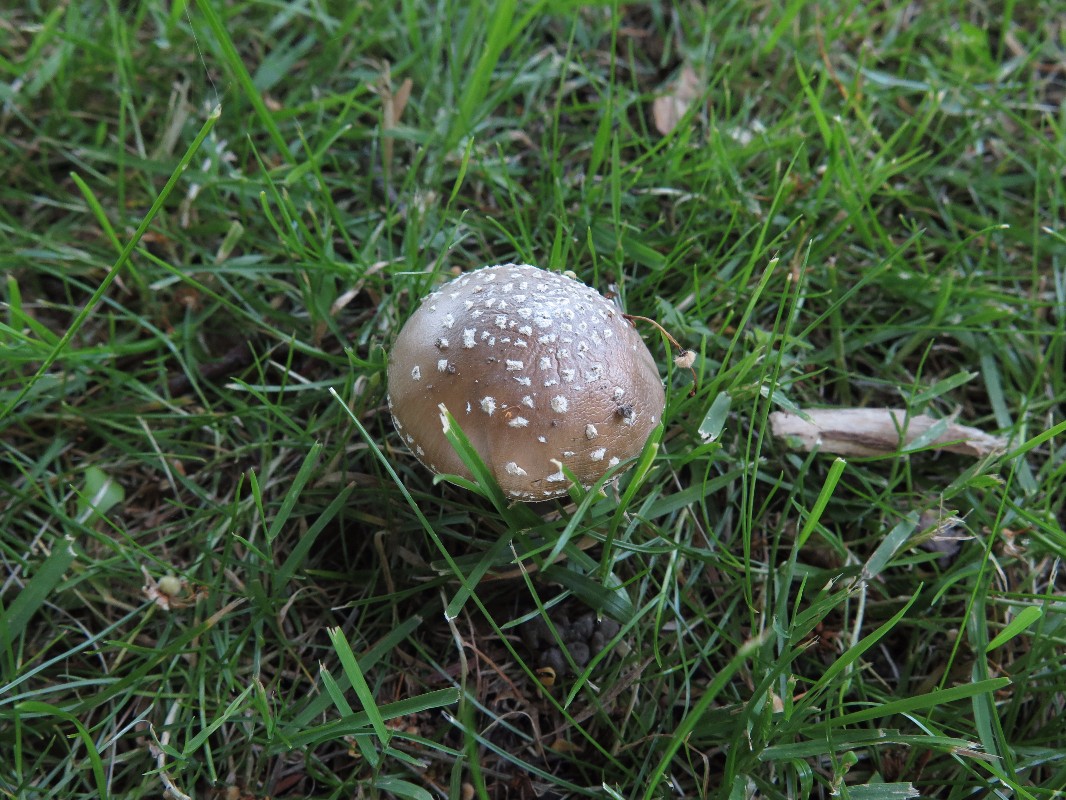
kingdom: Fungi
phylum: Basidiomycota
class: Agaricomycetes
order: Agaricales
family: Amanitaceae
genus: Amanita
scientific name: Amanita pantherina
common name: panter-fluesvamp
